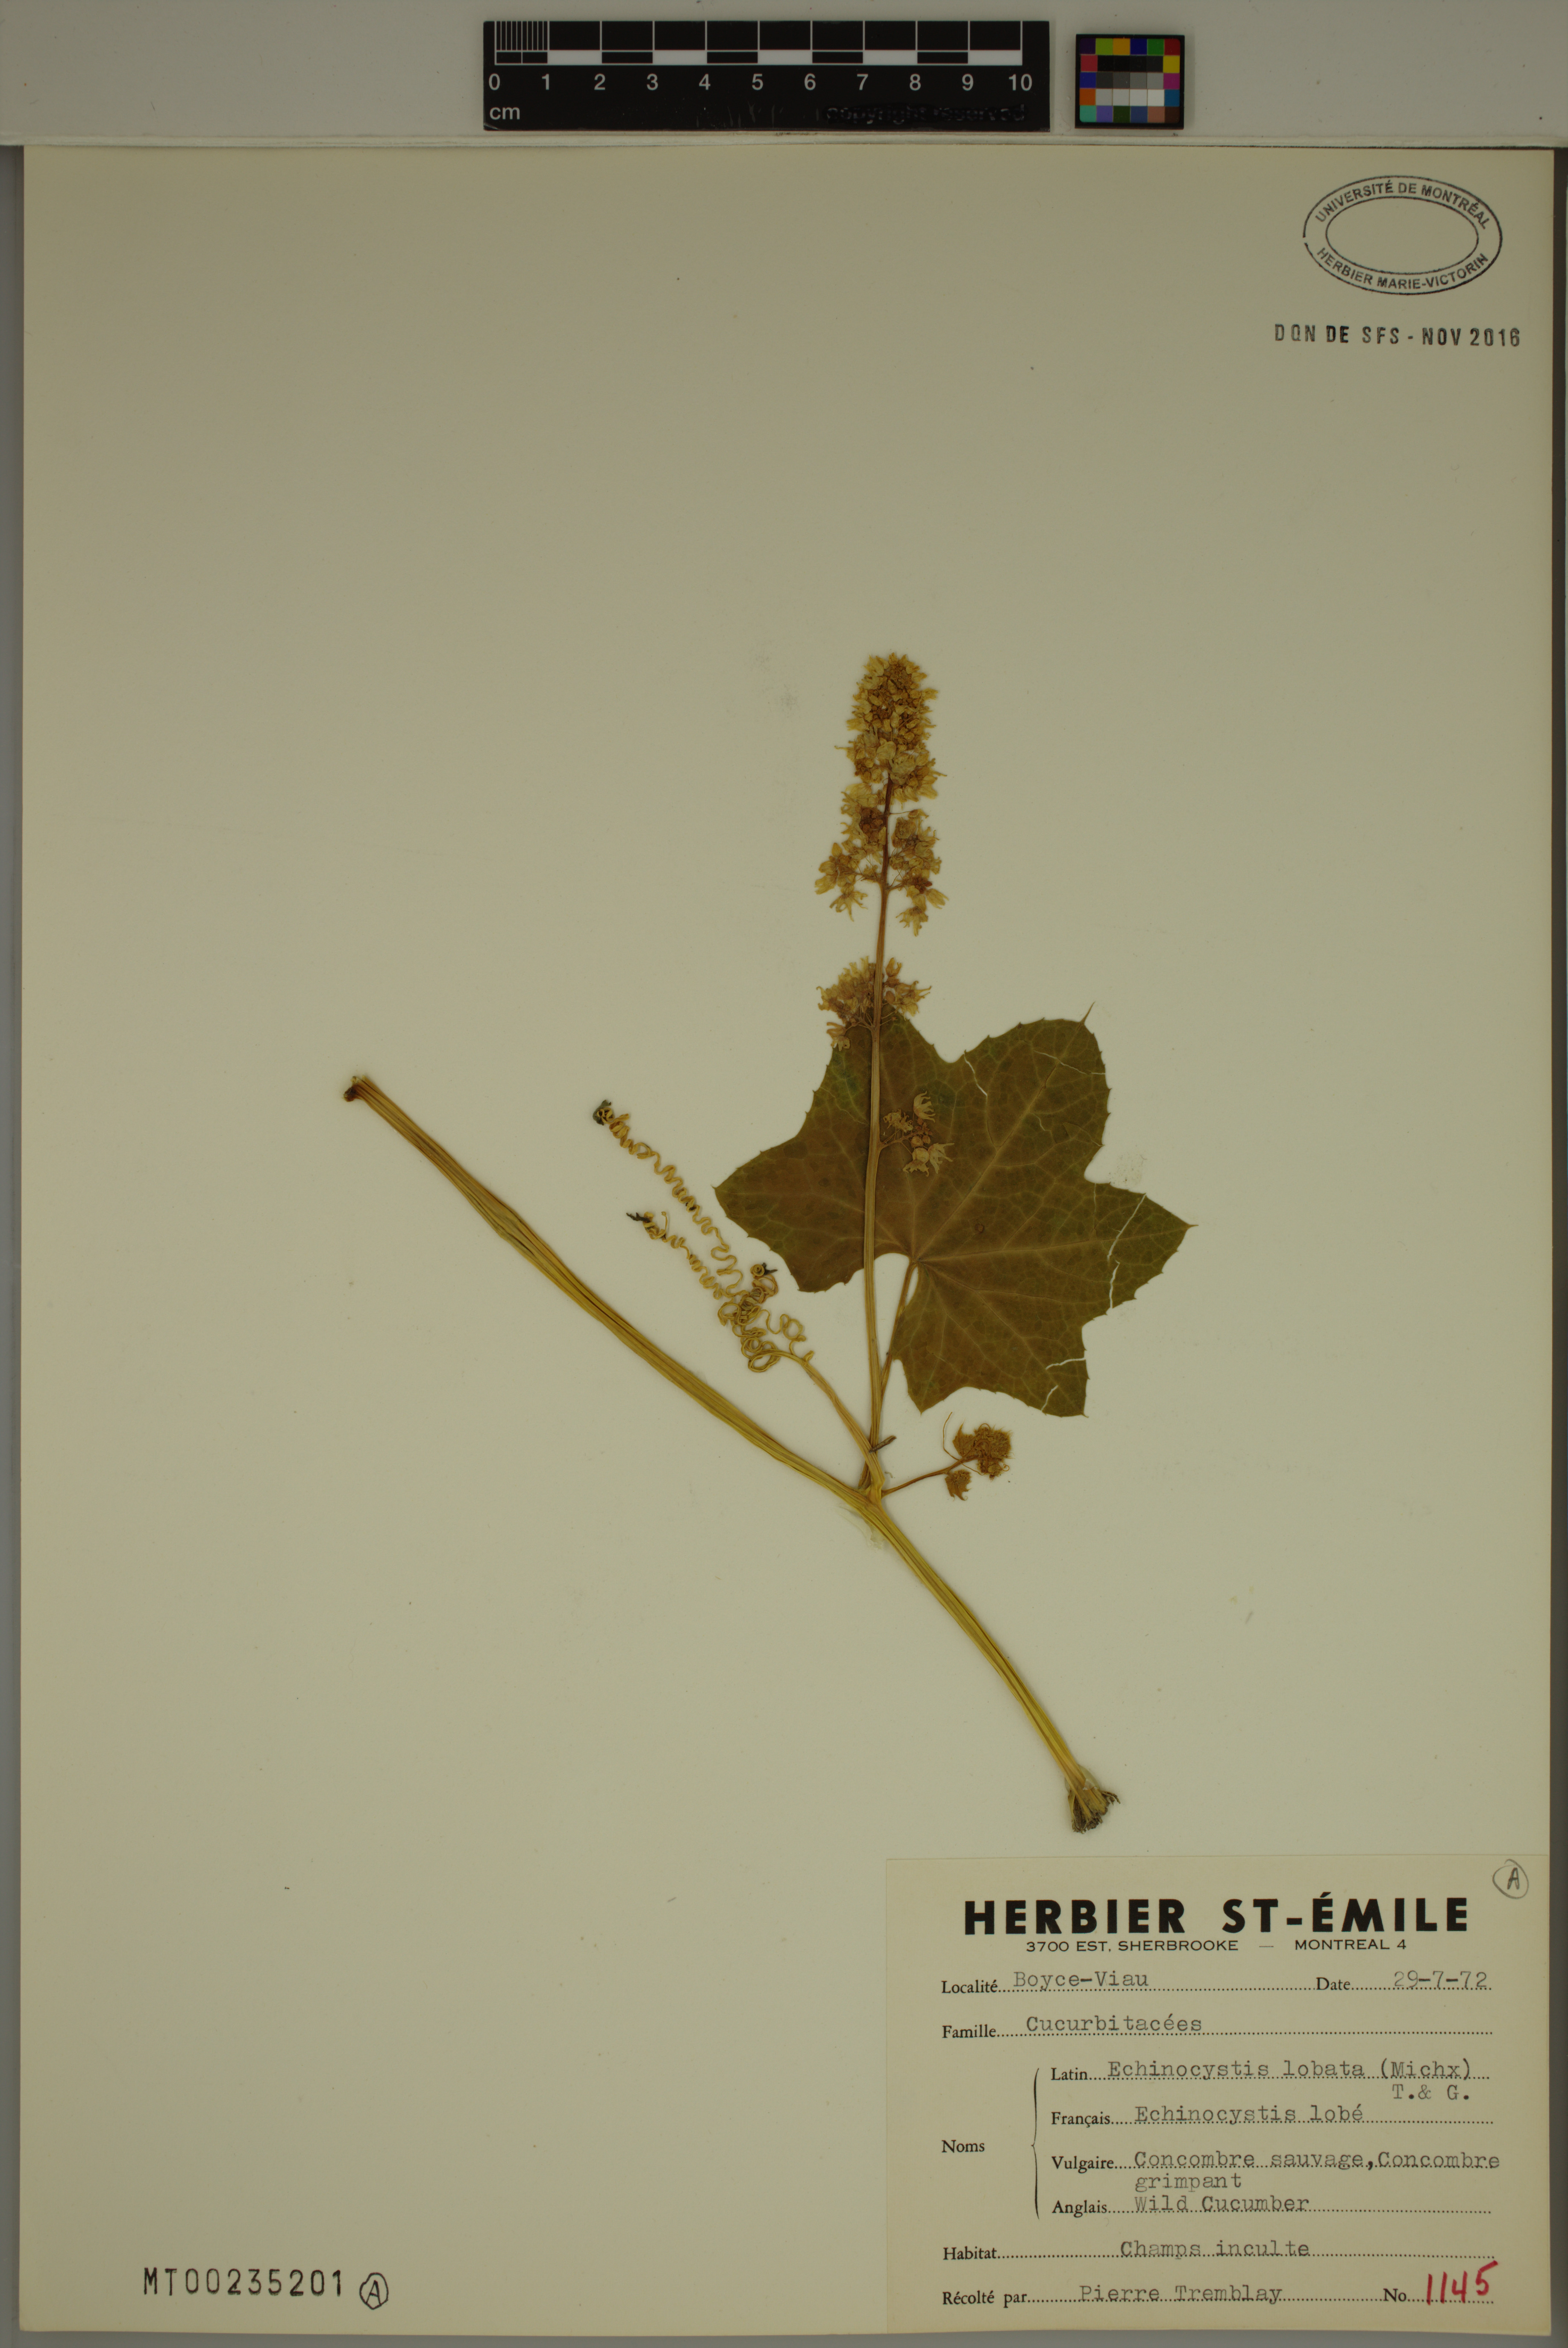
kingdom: Plantae
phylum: Tracheophyta
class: Magnoliopsida
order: Cucurbitales
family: Cucurbitaceae
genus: Echinocystis
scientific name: Echinocystis lobata
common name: Wild cucumber
